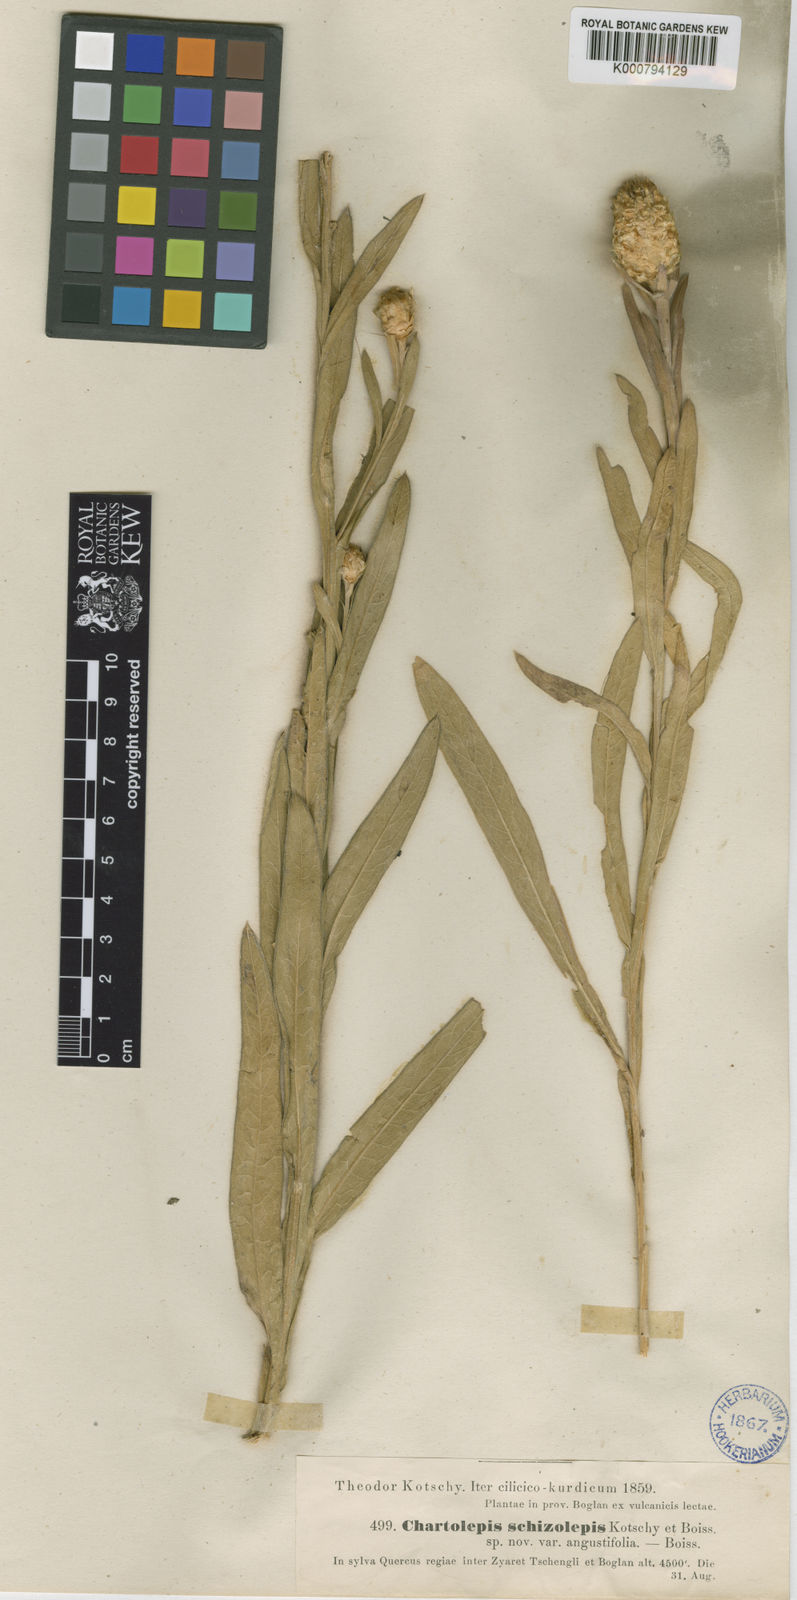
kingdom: Plantae
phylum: Tracheophyta
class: Magnoliopsida
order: Asterales
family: Asteraceae
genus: Centaurea
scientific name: Centaurea saligna
